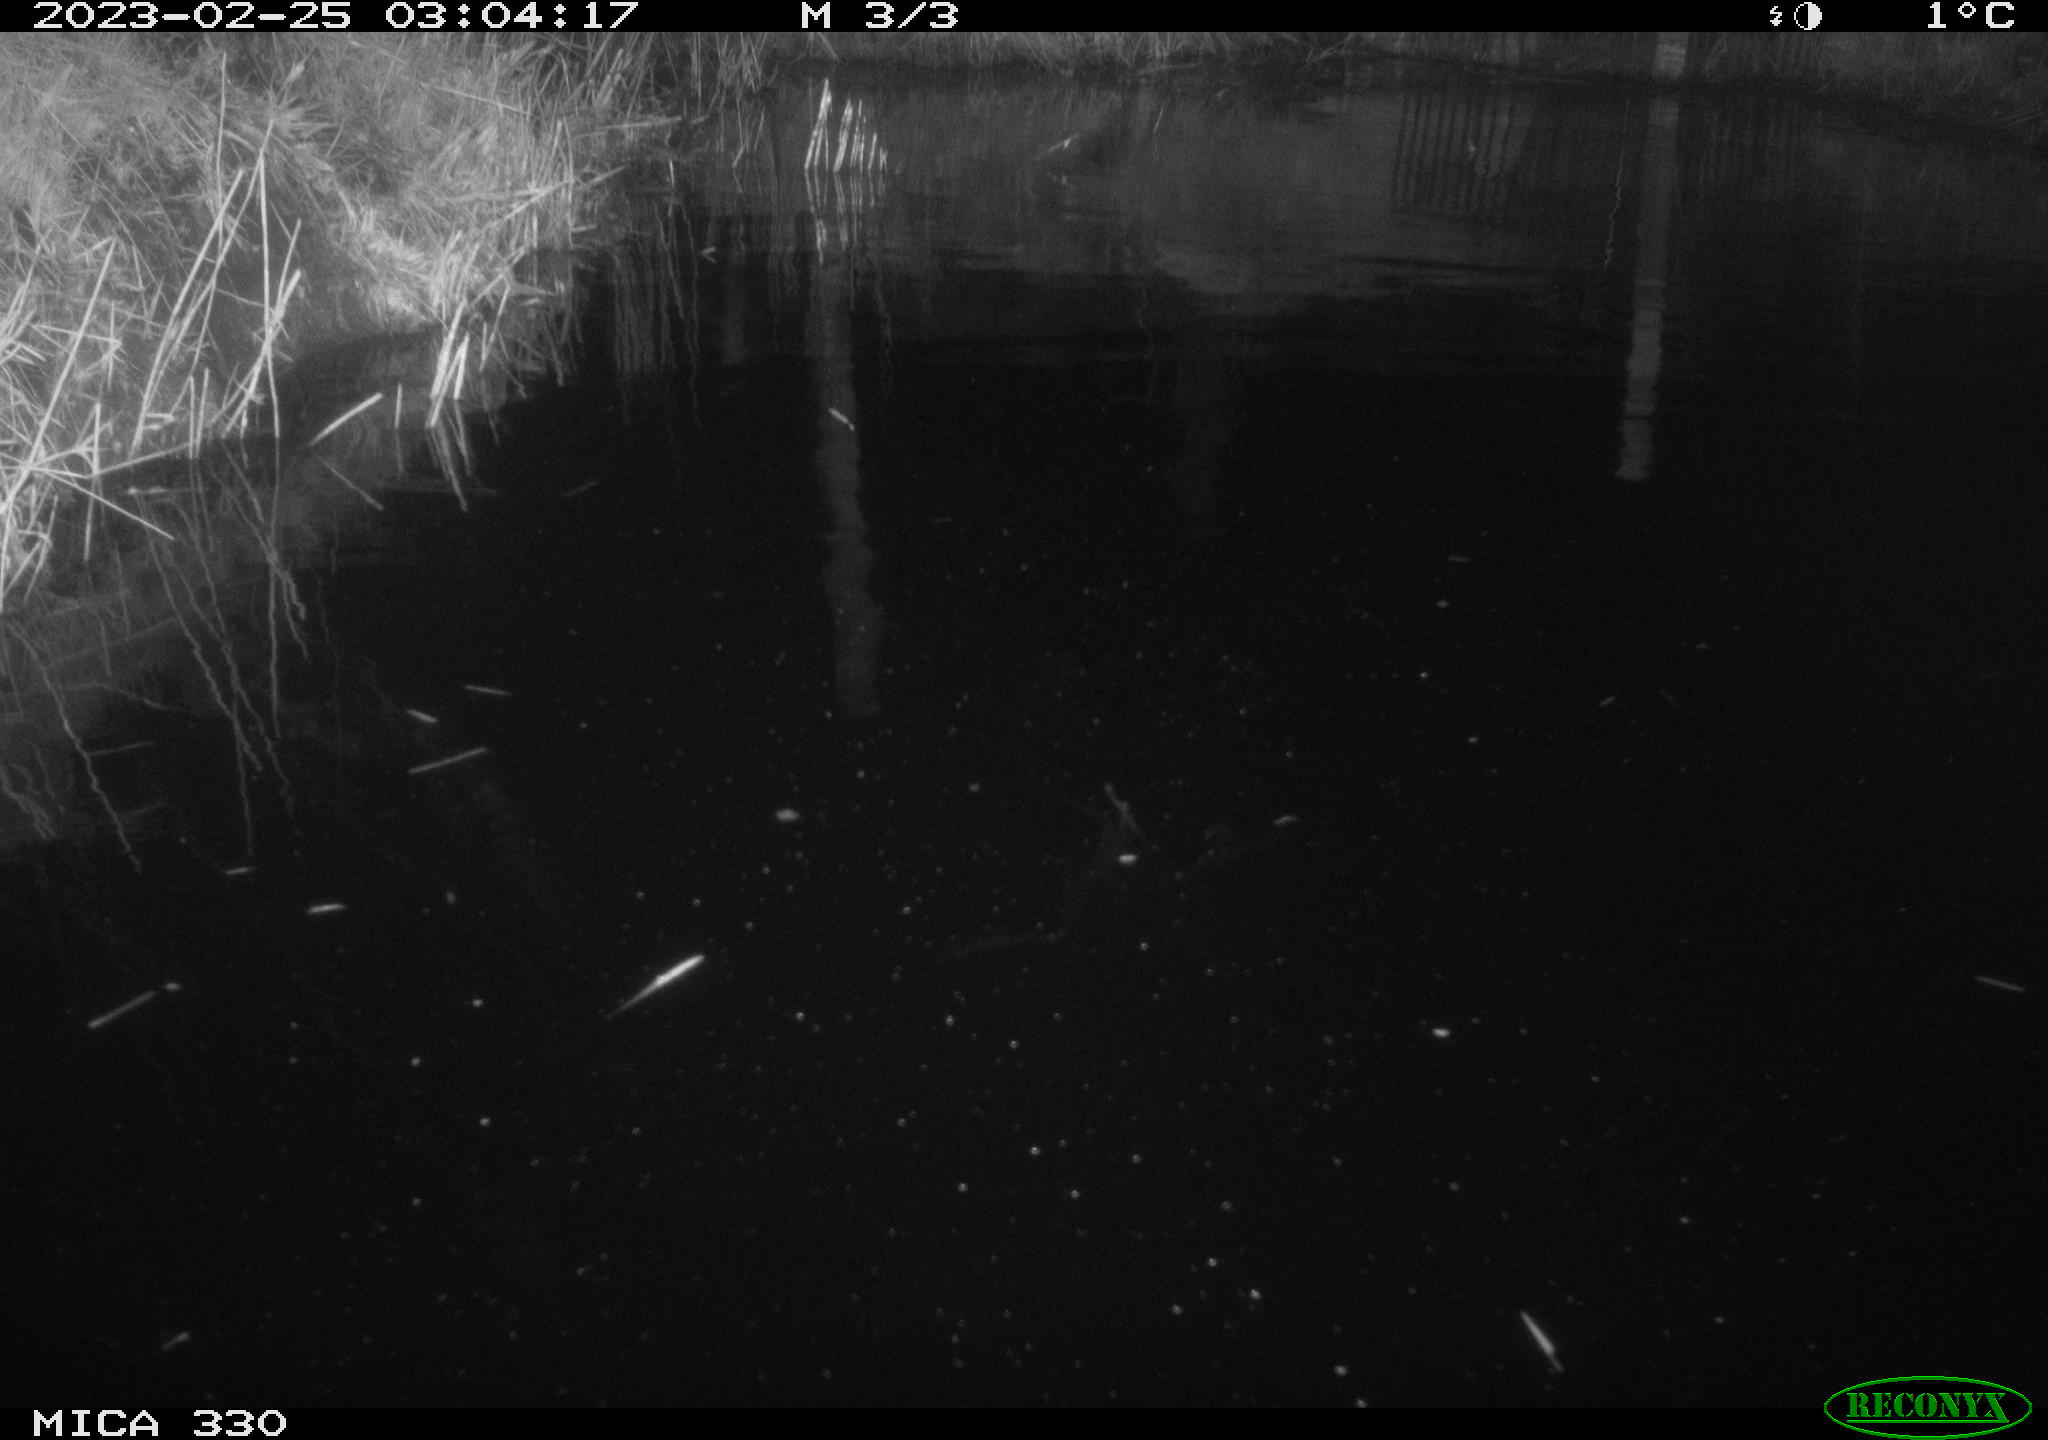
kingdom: Animalia
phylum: Chordata
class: Aves
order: Anseriformes
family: Anatidae
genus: Anas
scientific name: Anas
